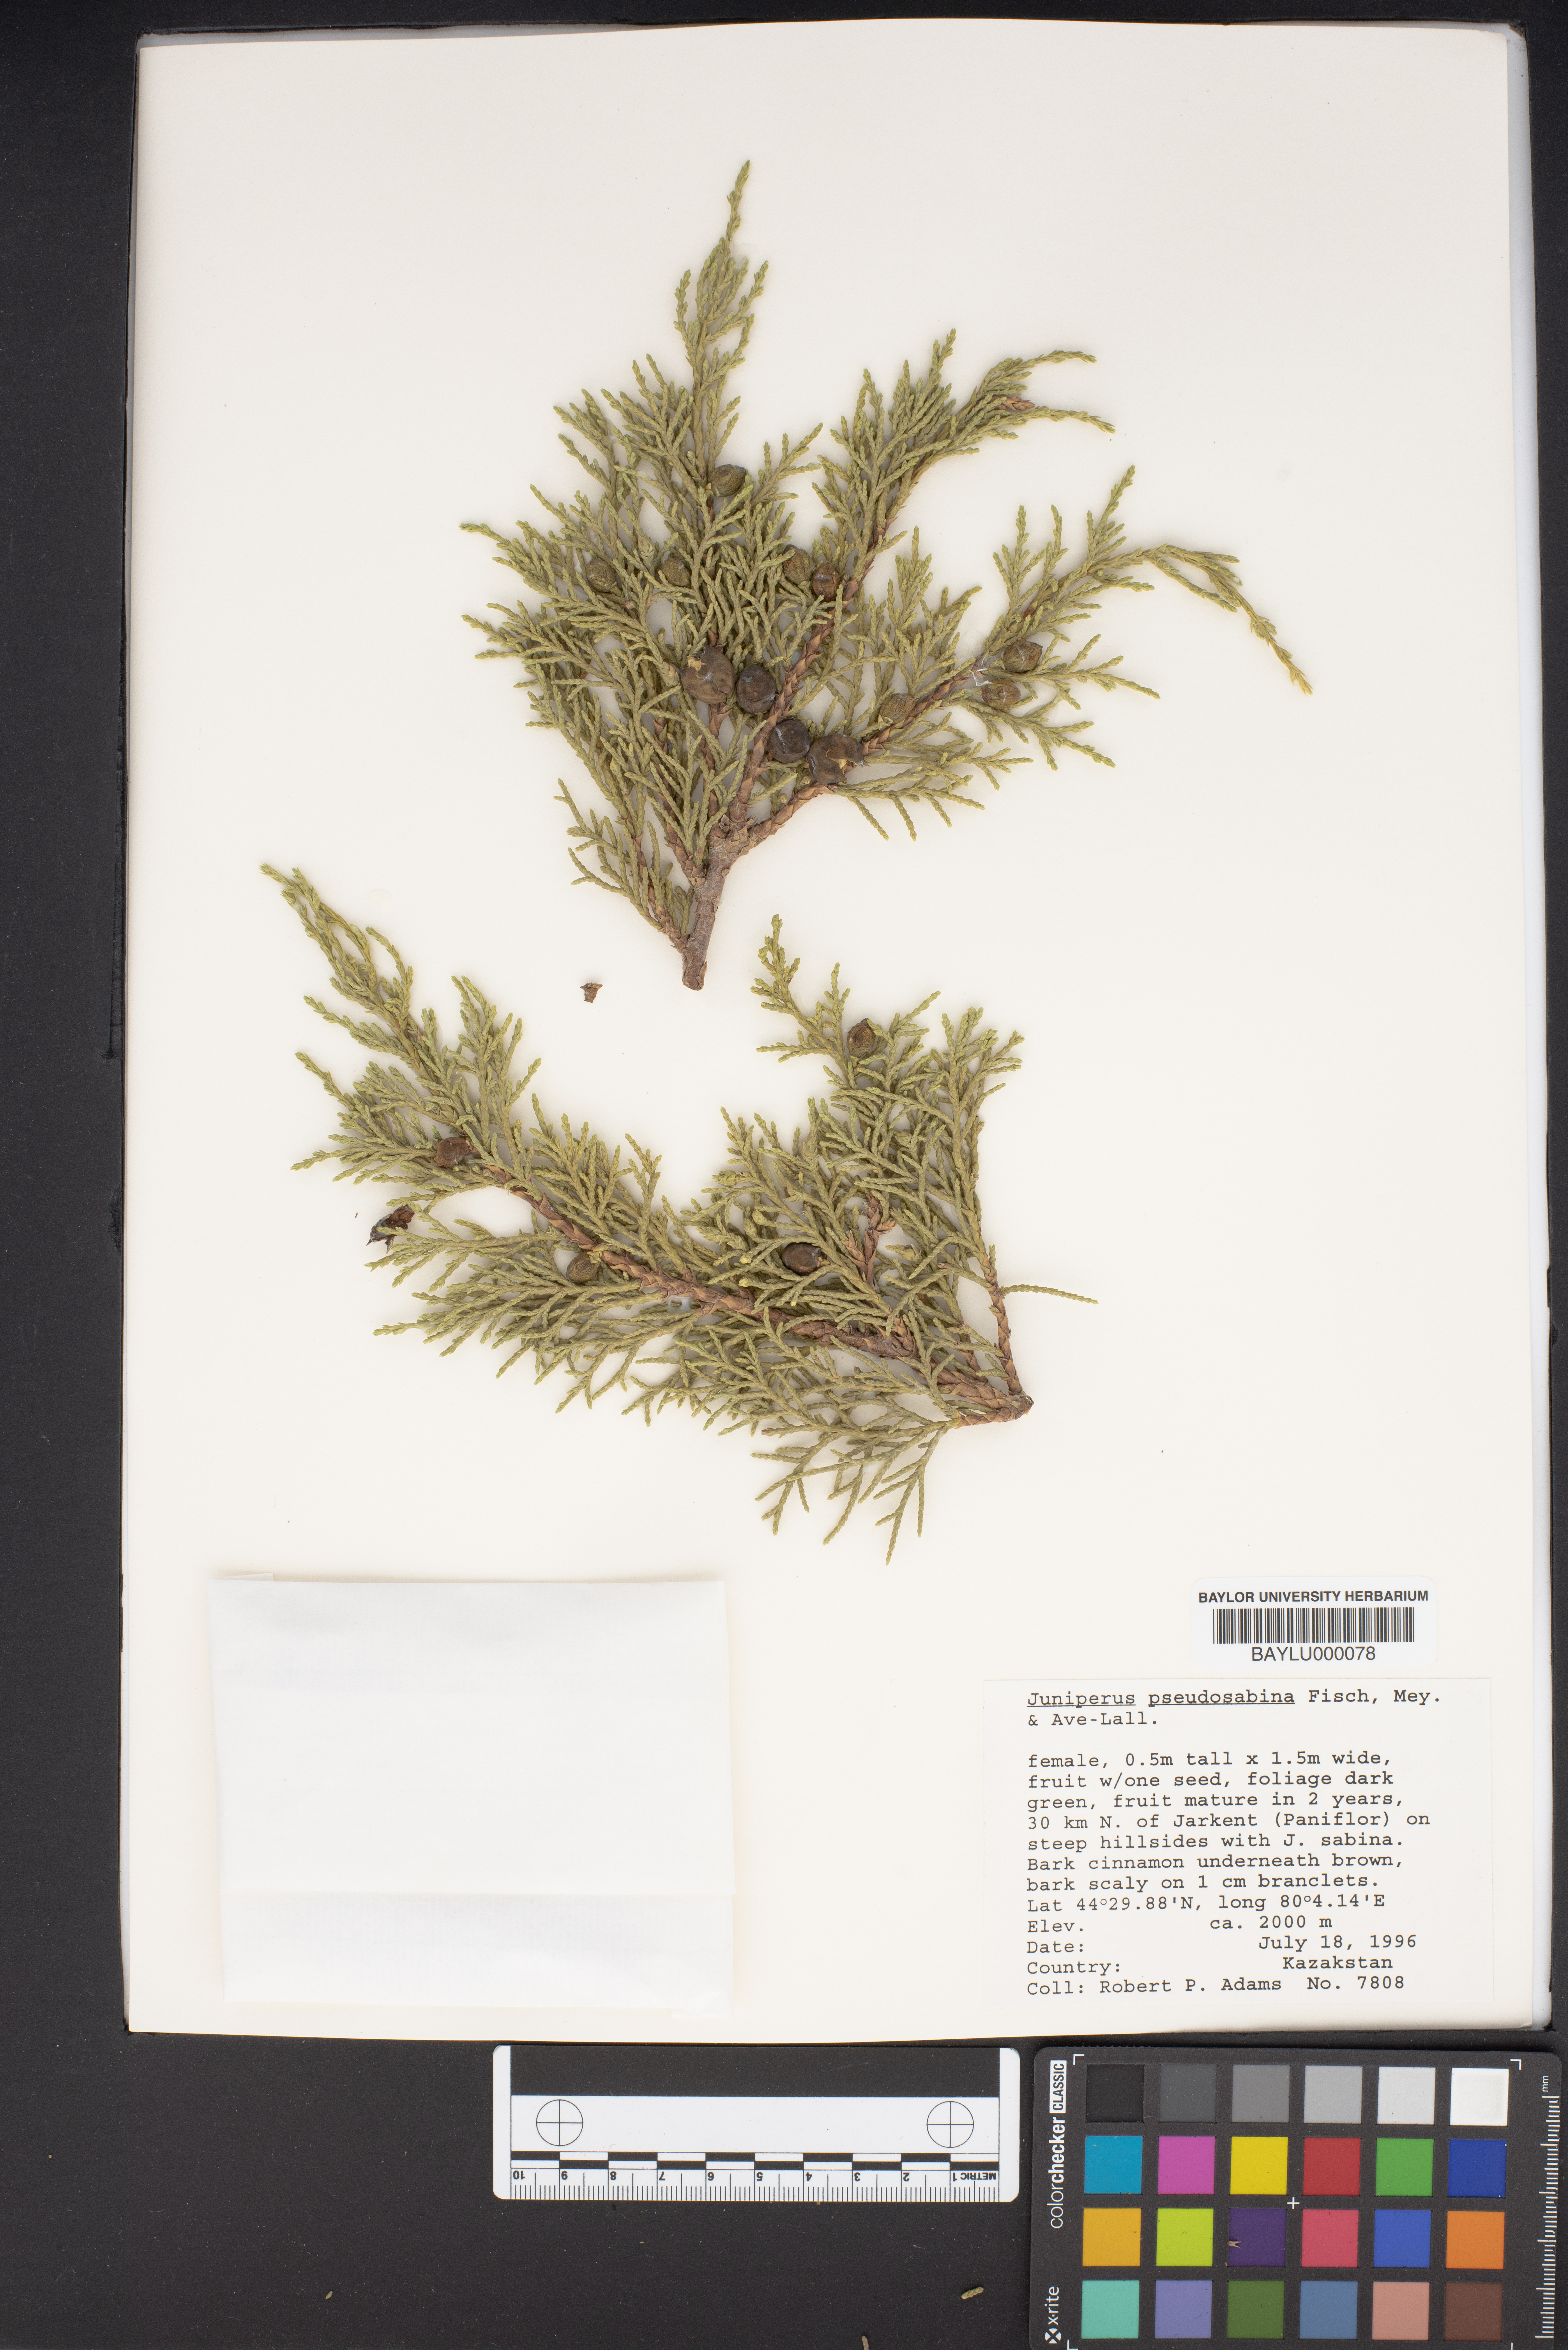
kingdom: Plantae
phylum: Tracheophyta
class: Pinopsida
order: Pinales
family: Cupressaceae
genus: Juniperus
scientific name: Juniperus pseudosabina
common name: Turkestan juniper
